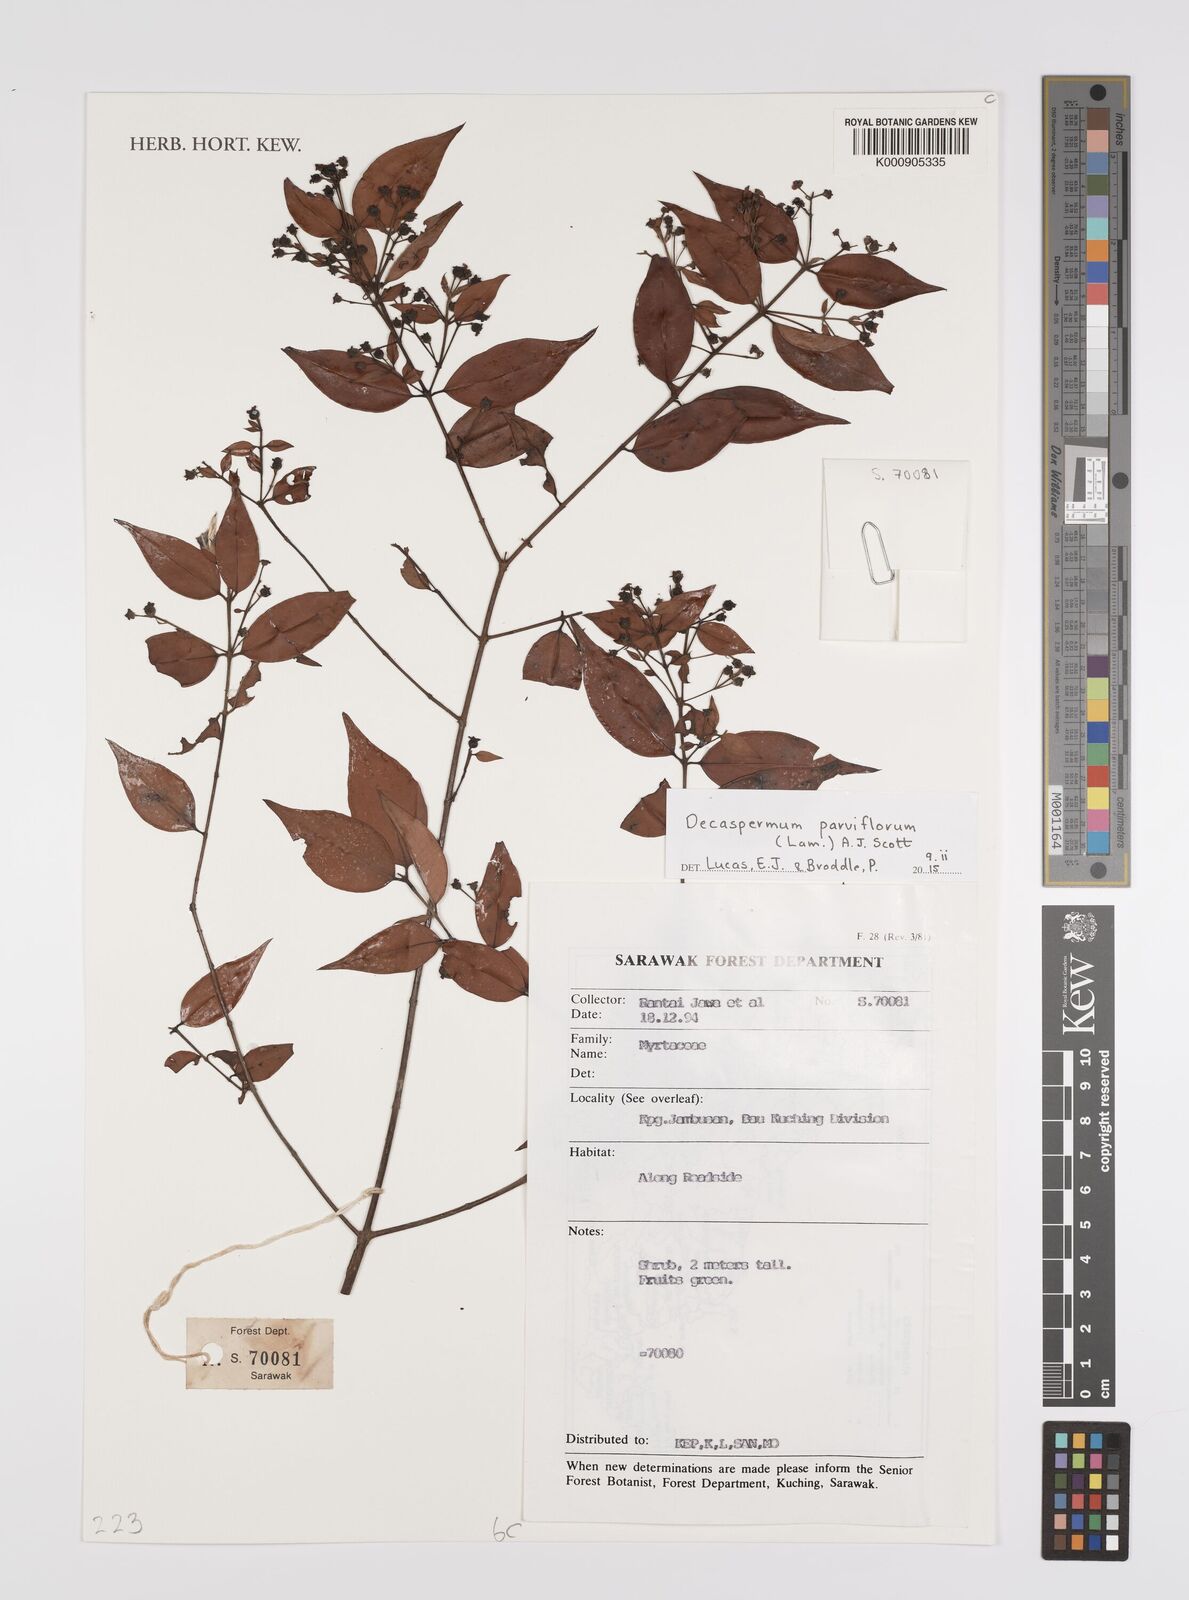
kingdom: Plantae
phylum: Tracheophyta
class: Magnoliopsida
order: Myrtales
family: Myrtaceae
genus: Decaspermum
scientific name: Decaspermum parviflorum
